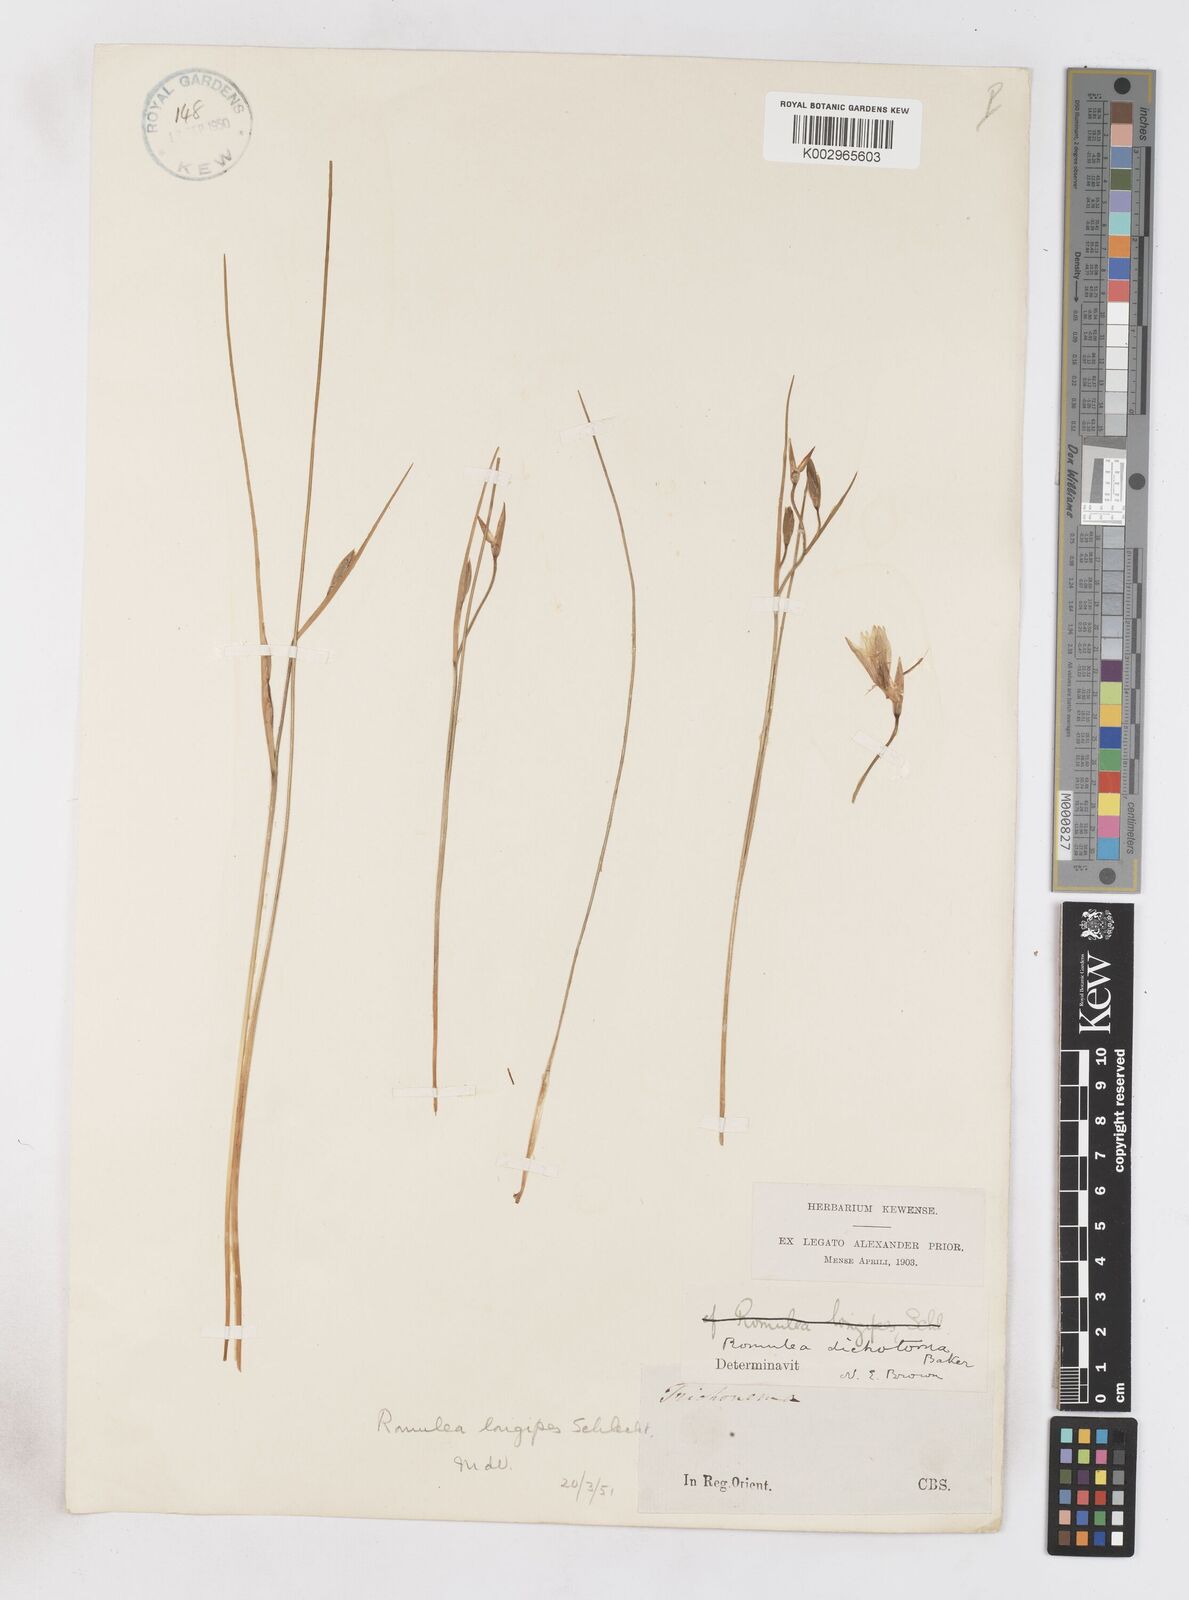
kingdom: Plantae
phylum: Tracheophyta
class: Liliopsida
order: Asparagales
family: Iridaceae
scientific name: Iridaceae
